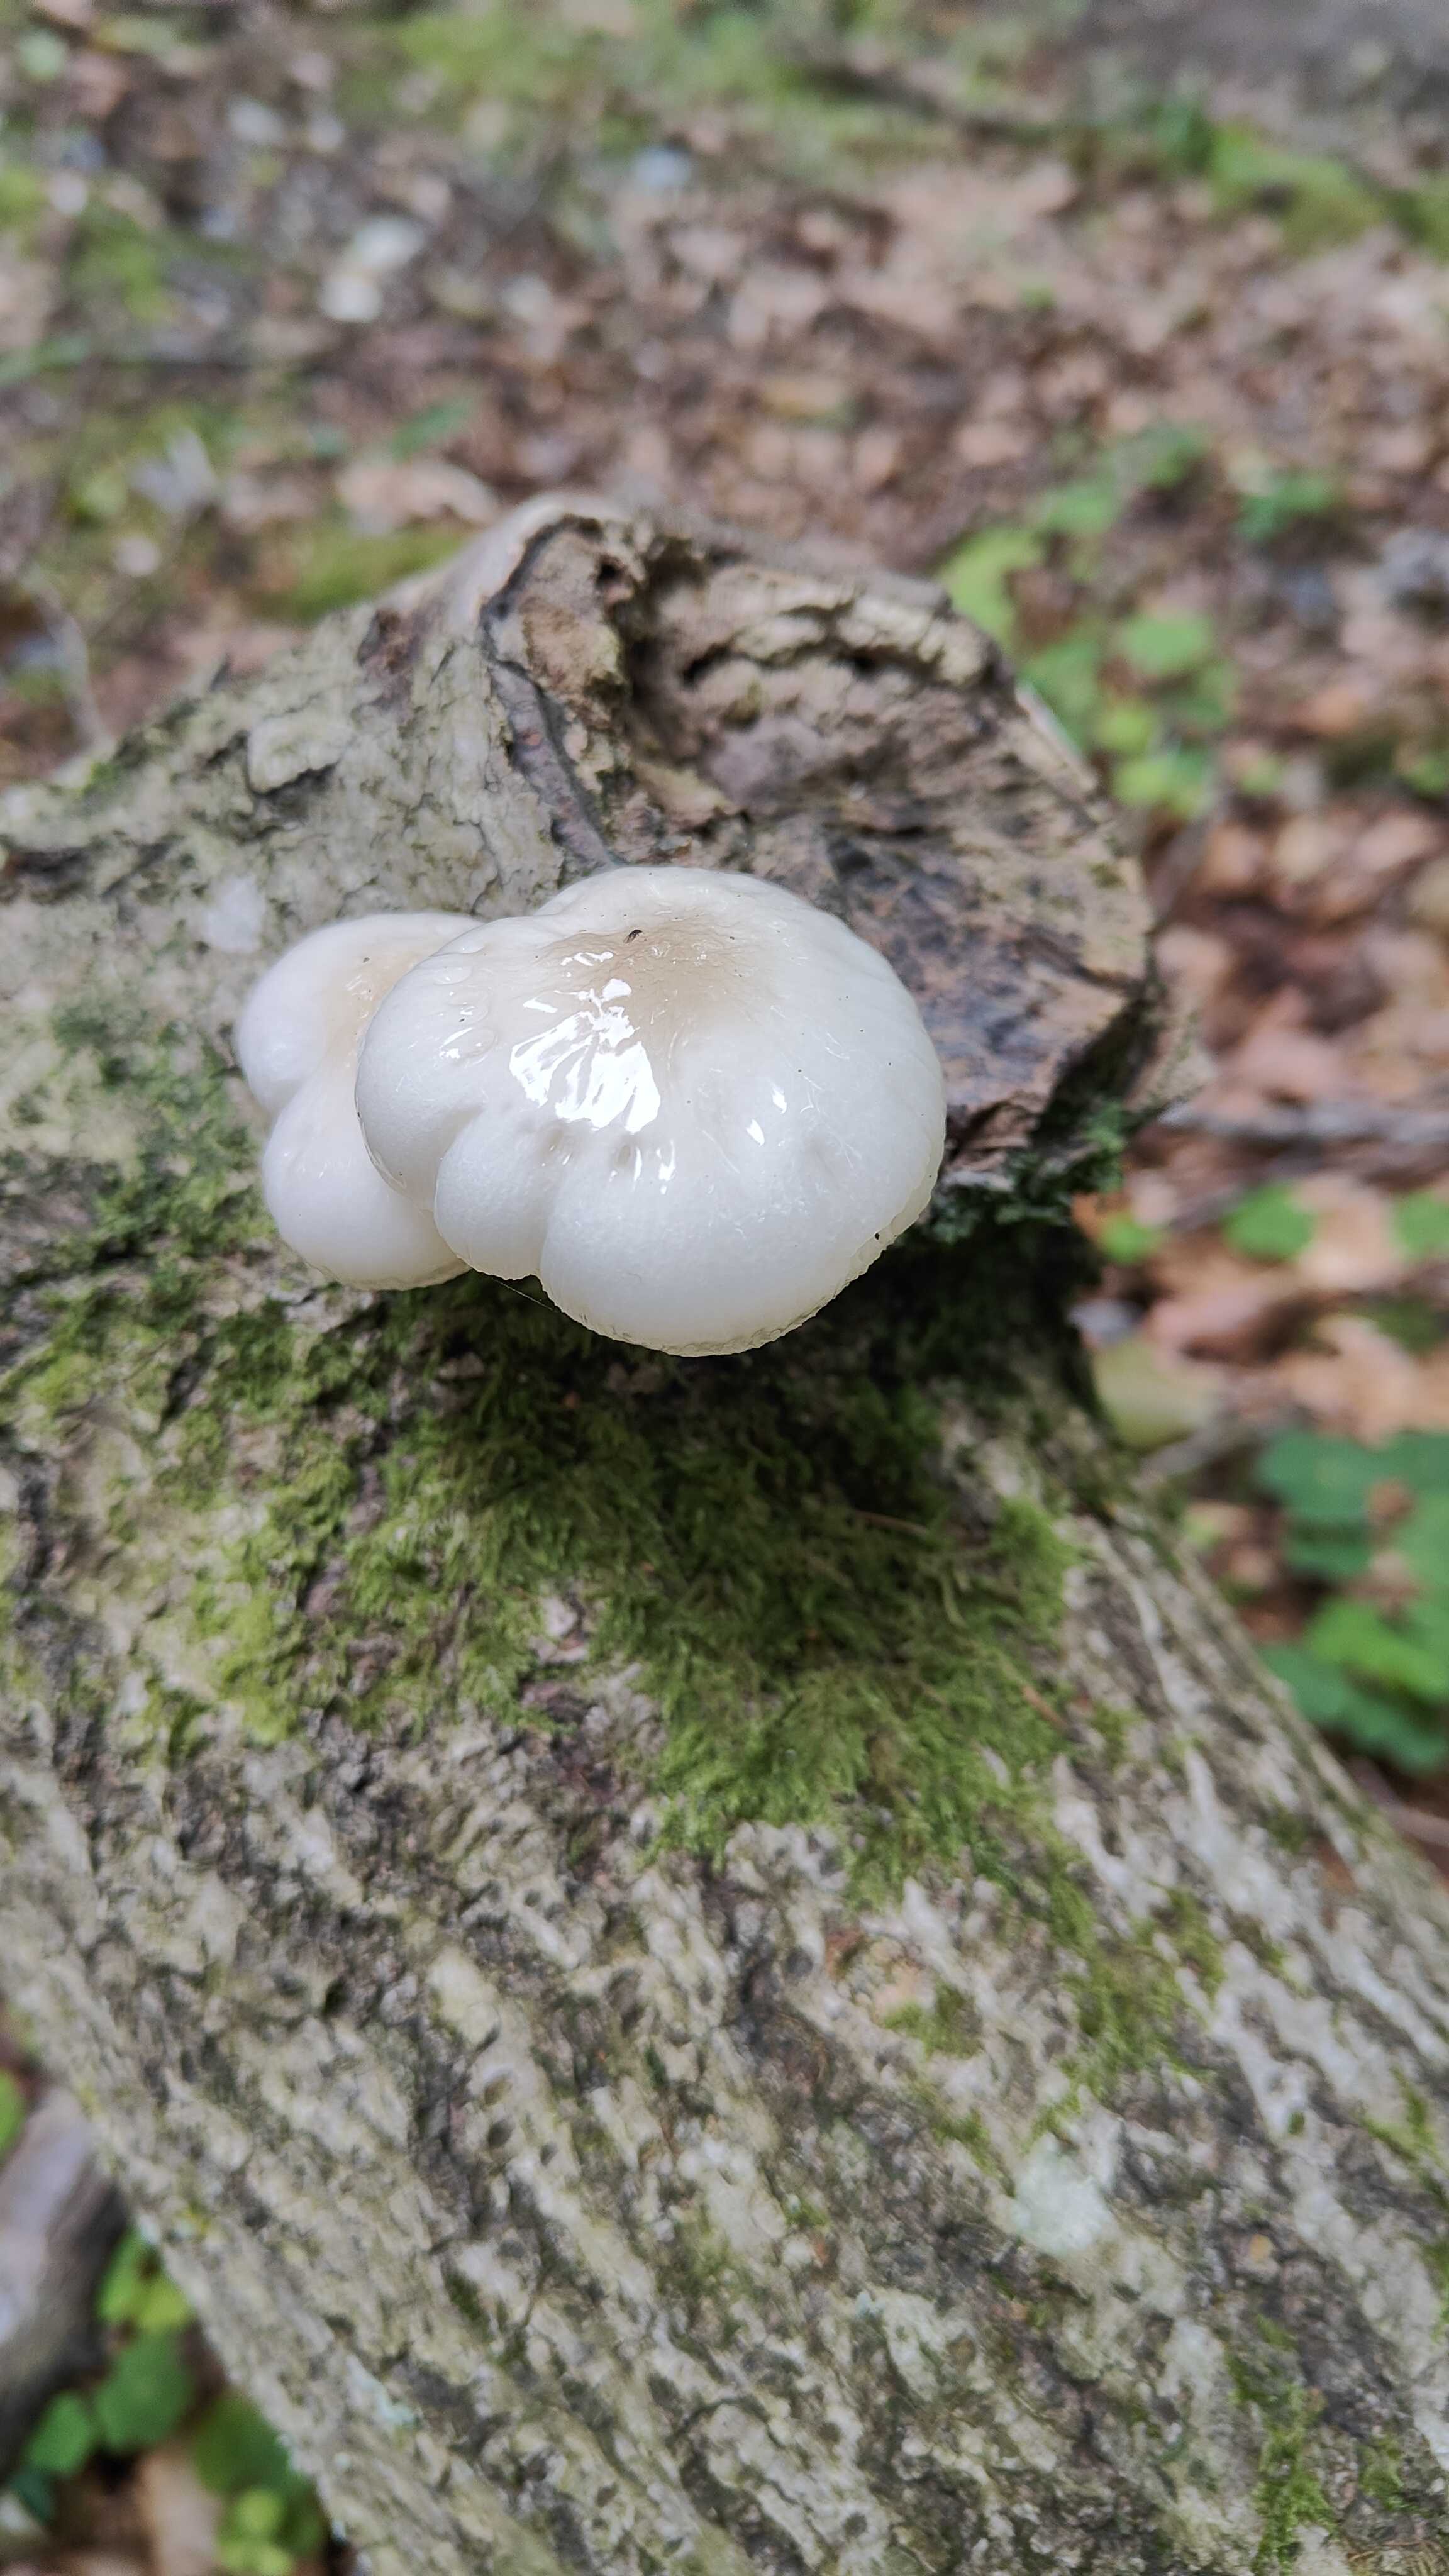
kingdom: Fungi
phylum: Basidiomycota
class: Agaricomycetes
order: Agaricales
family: Physalacriaceae
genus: Mucidula
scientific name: Mucidula mucida
